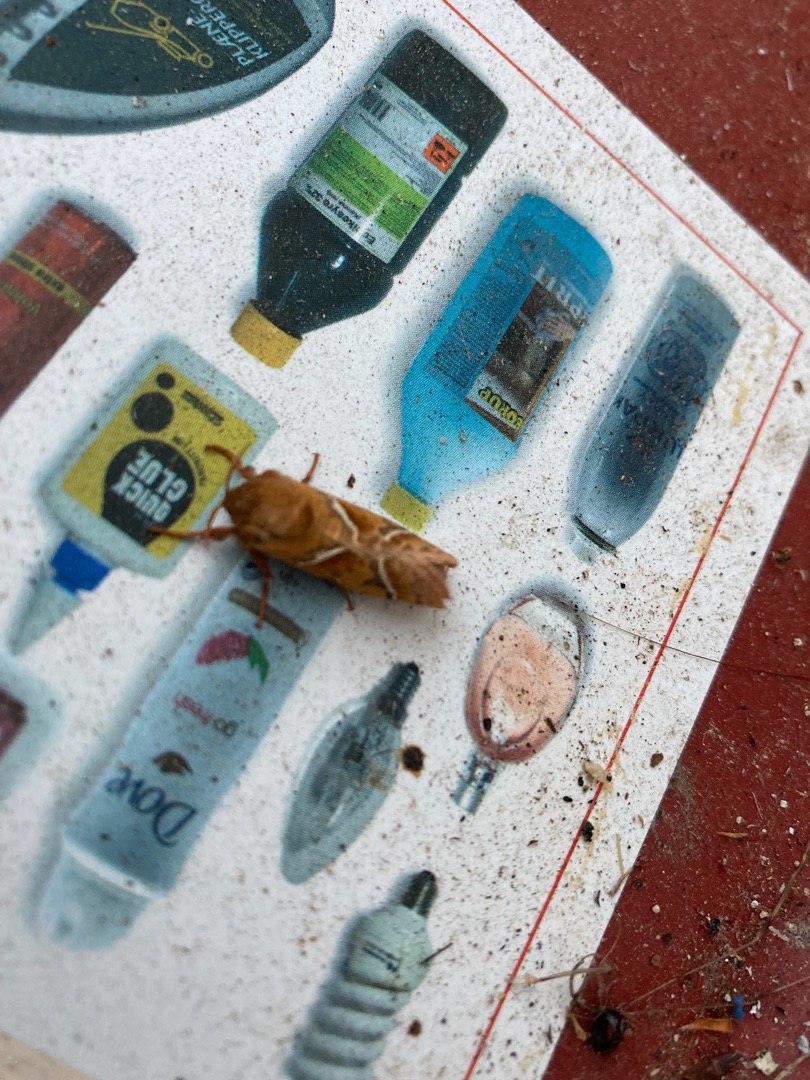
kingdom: Animalia
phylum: Arthropoda
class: Insecta
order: Lepidoptera
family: Hepialidae
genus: Triodia
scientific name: Triodia sylvina
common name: Skræpperodæder
